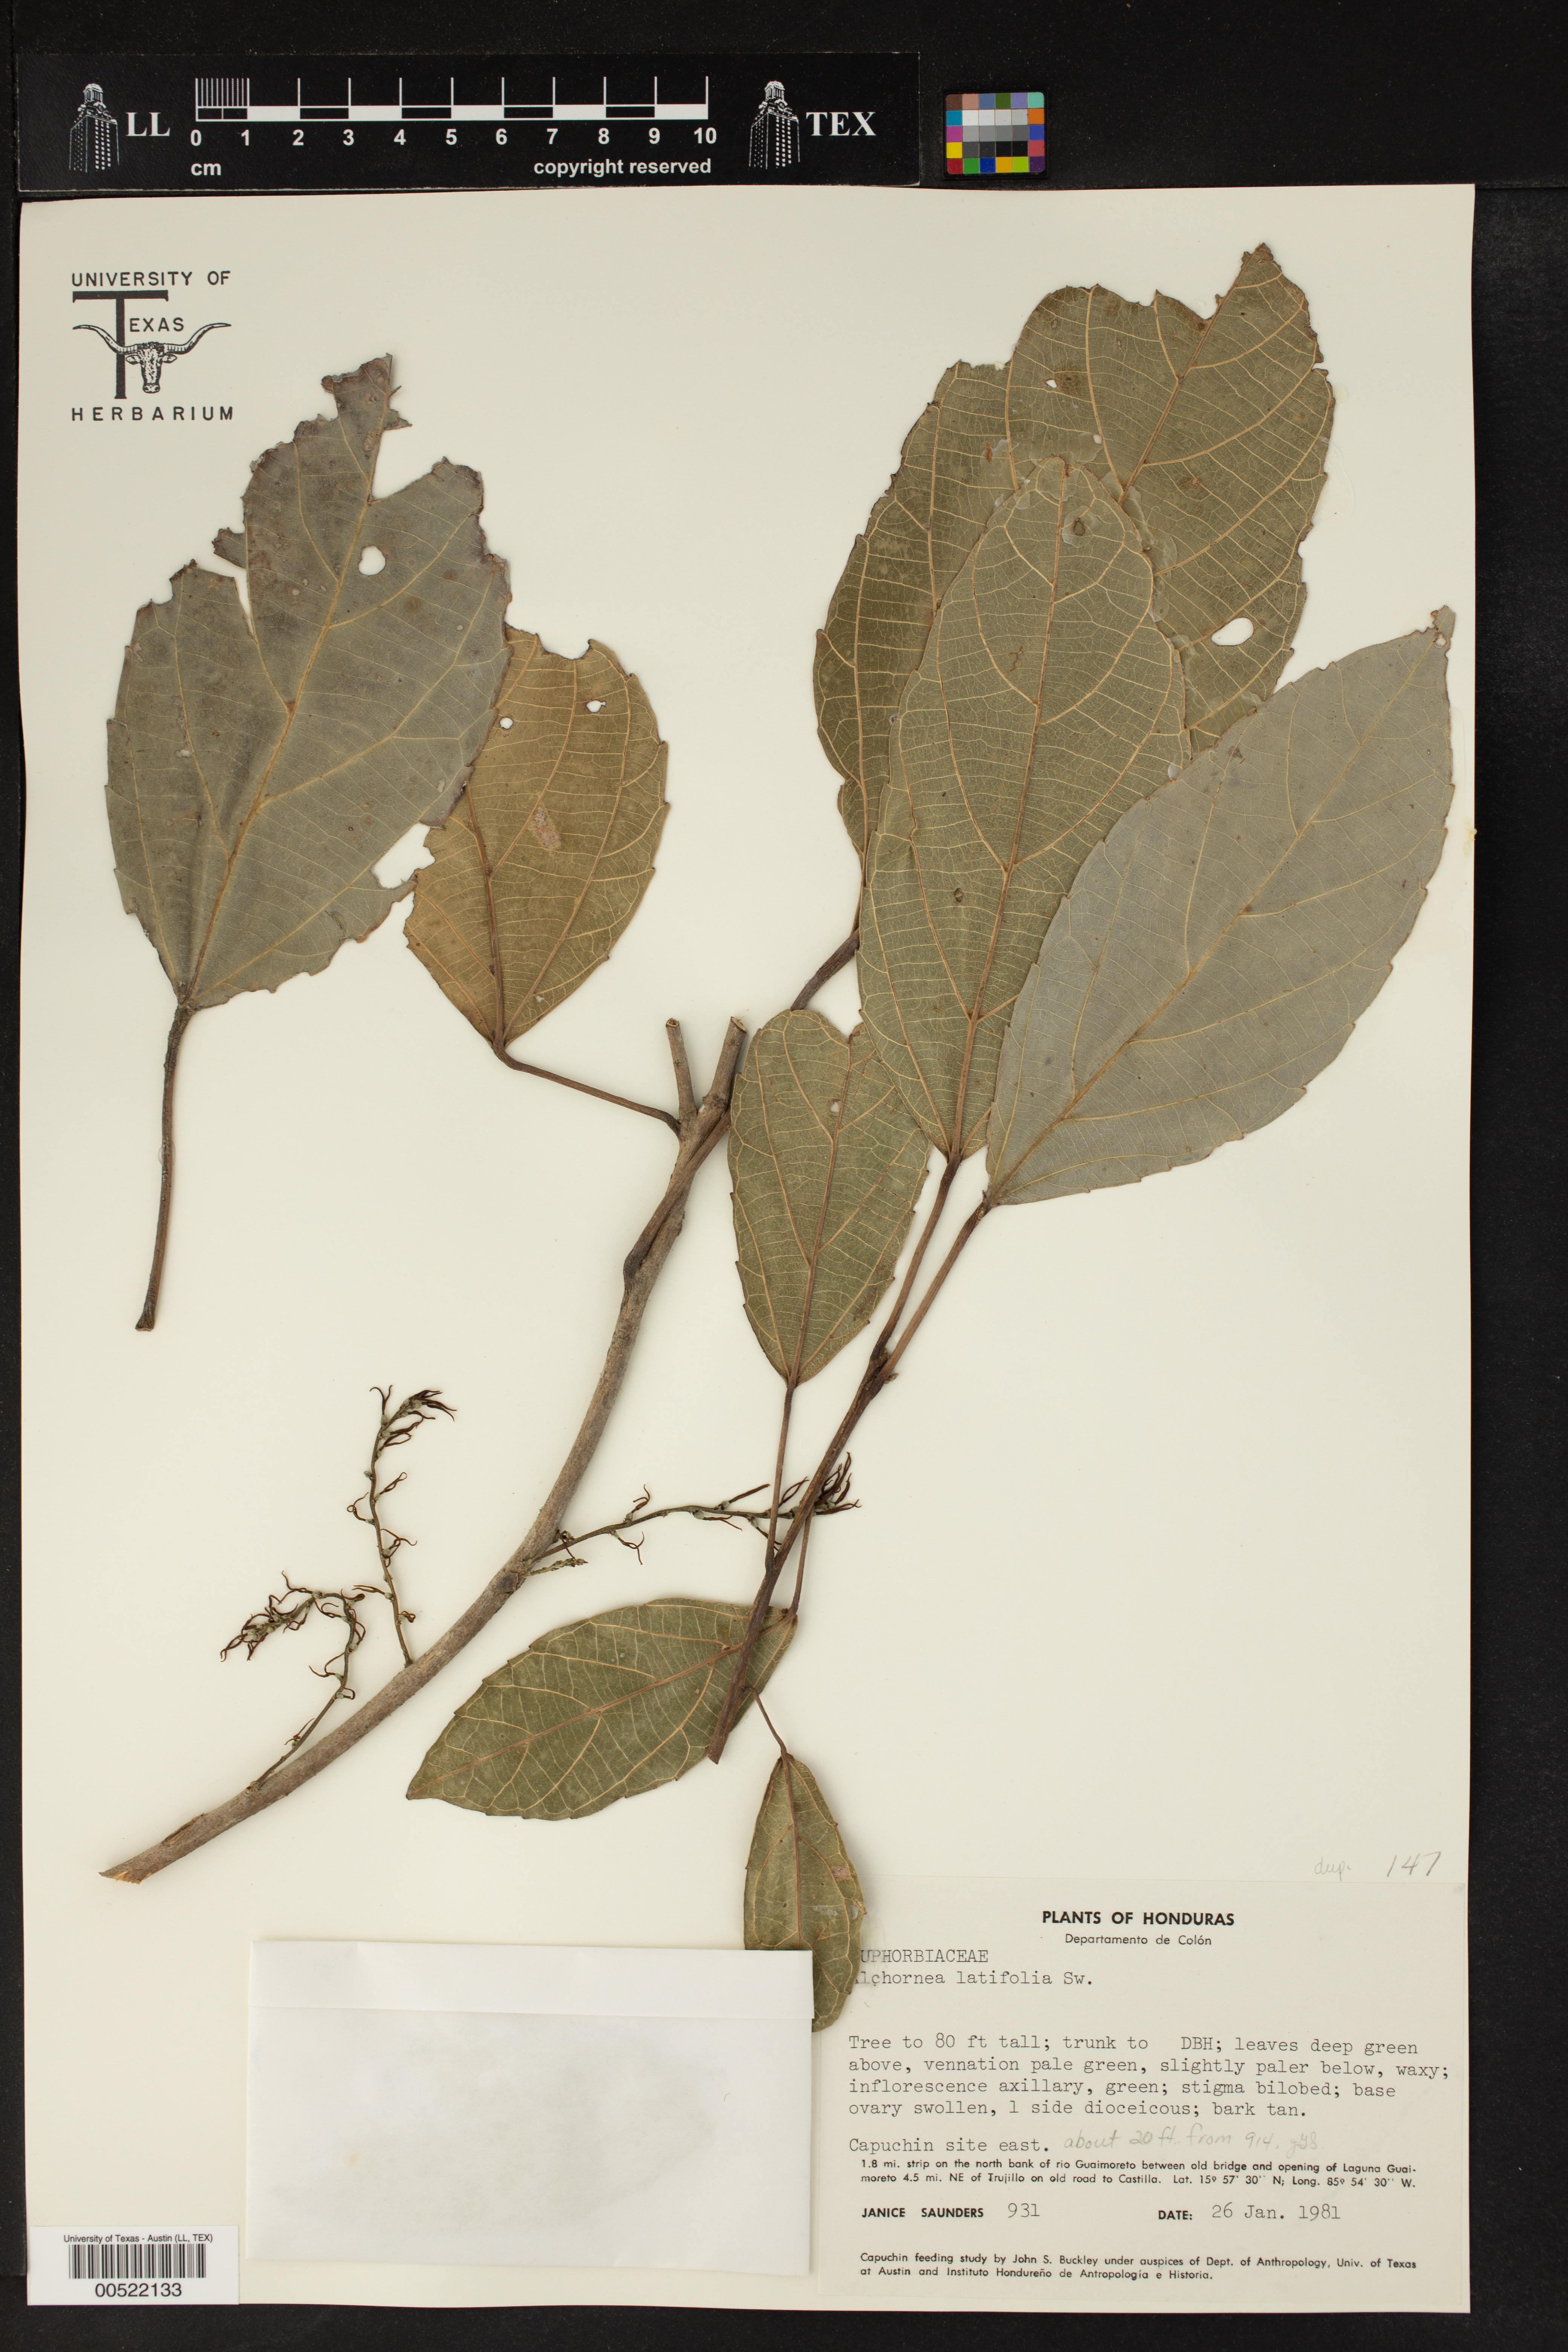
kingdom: Plantae
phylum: Tracheophyta
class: Magnoliopsida
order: Malpighiales
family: Euphorbiaceae
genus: Alchornea
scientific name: Alchornea latifolia
